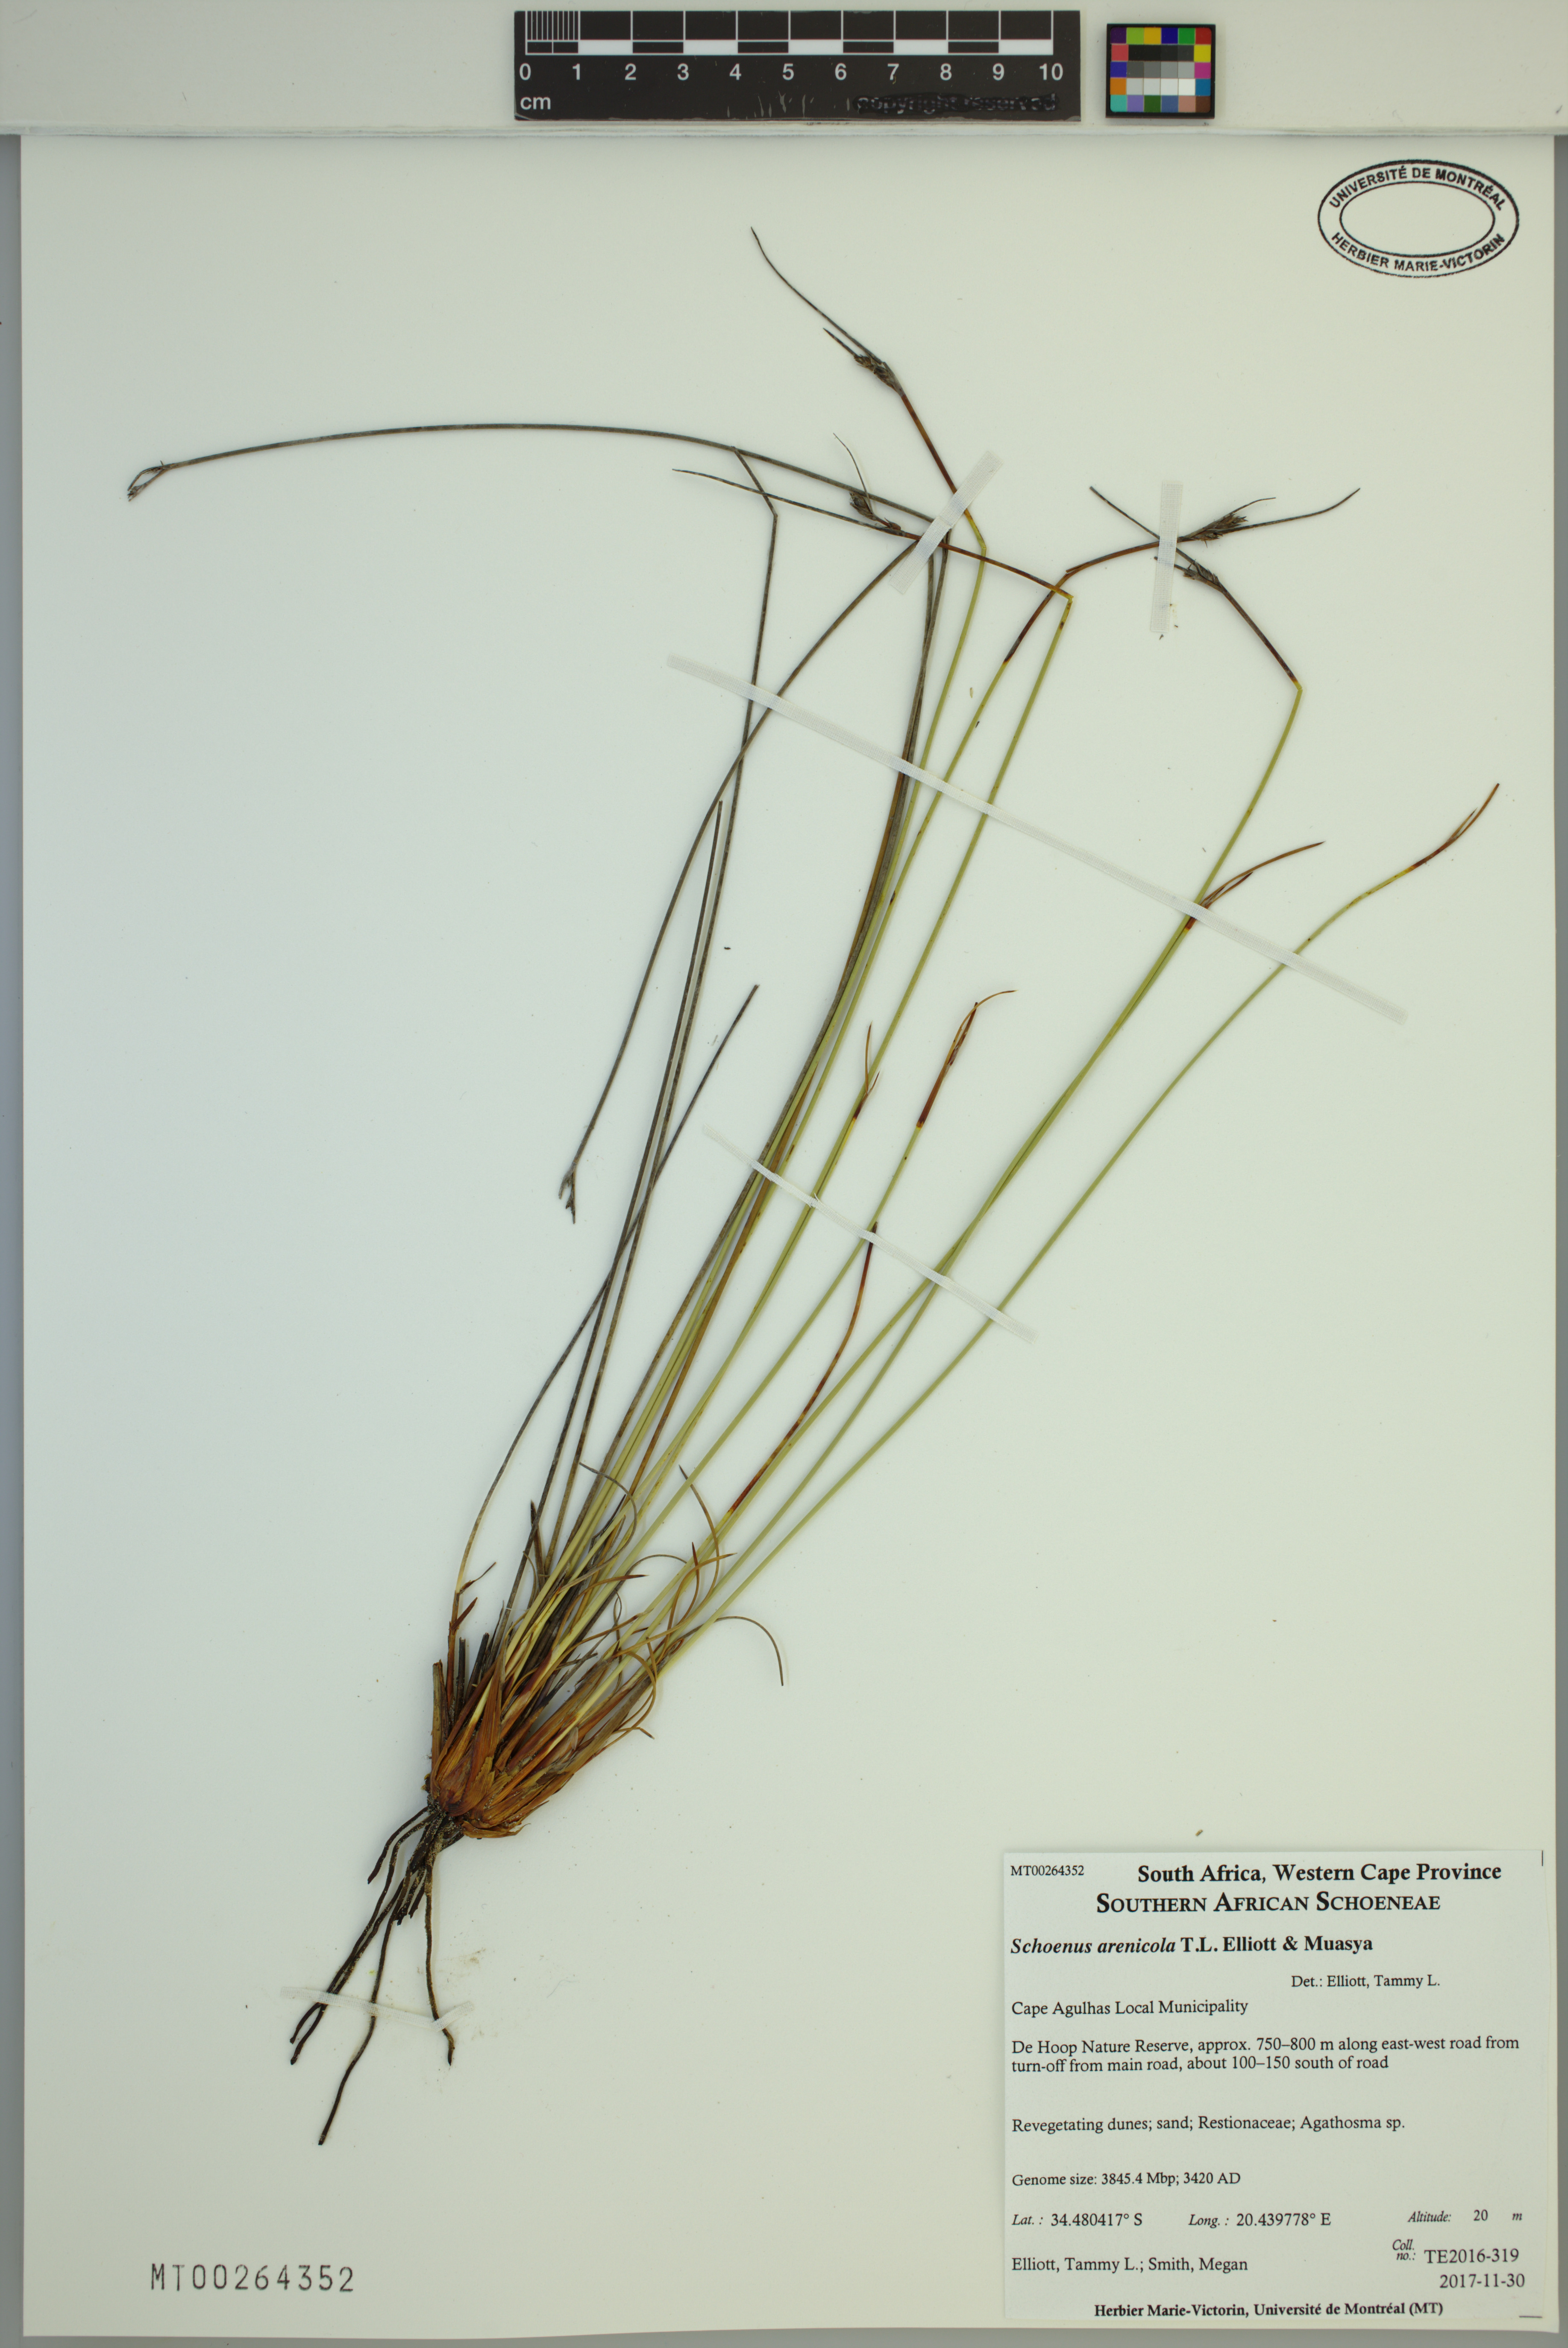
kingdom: Plantae
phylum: Tracheophyta
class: Liliopsida
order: Poales
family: Cyperaceae
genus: Schoenus
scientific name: Schoenus arenicola
